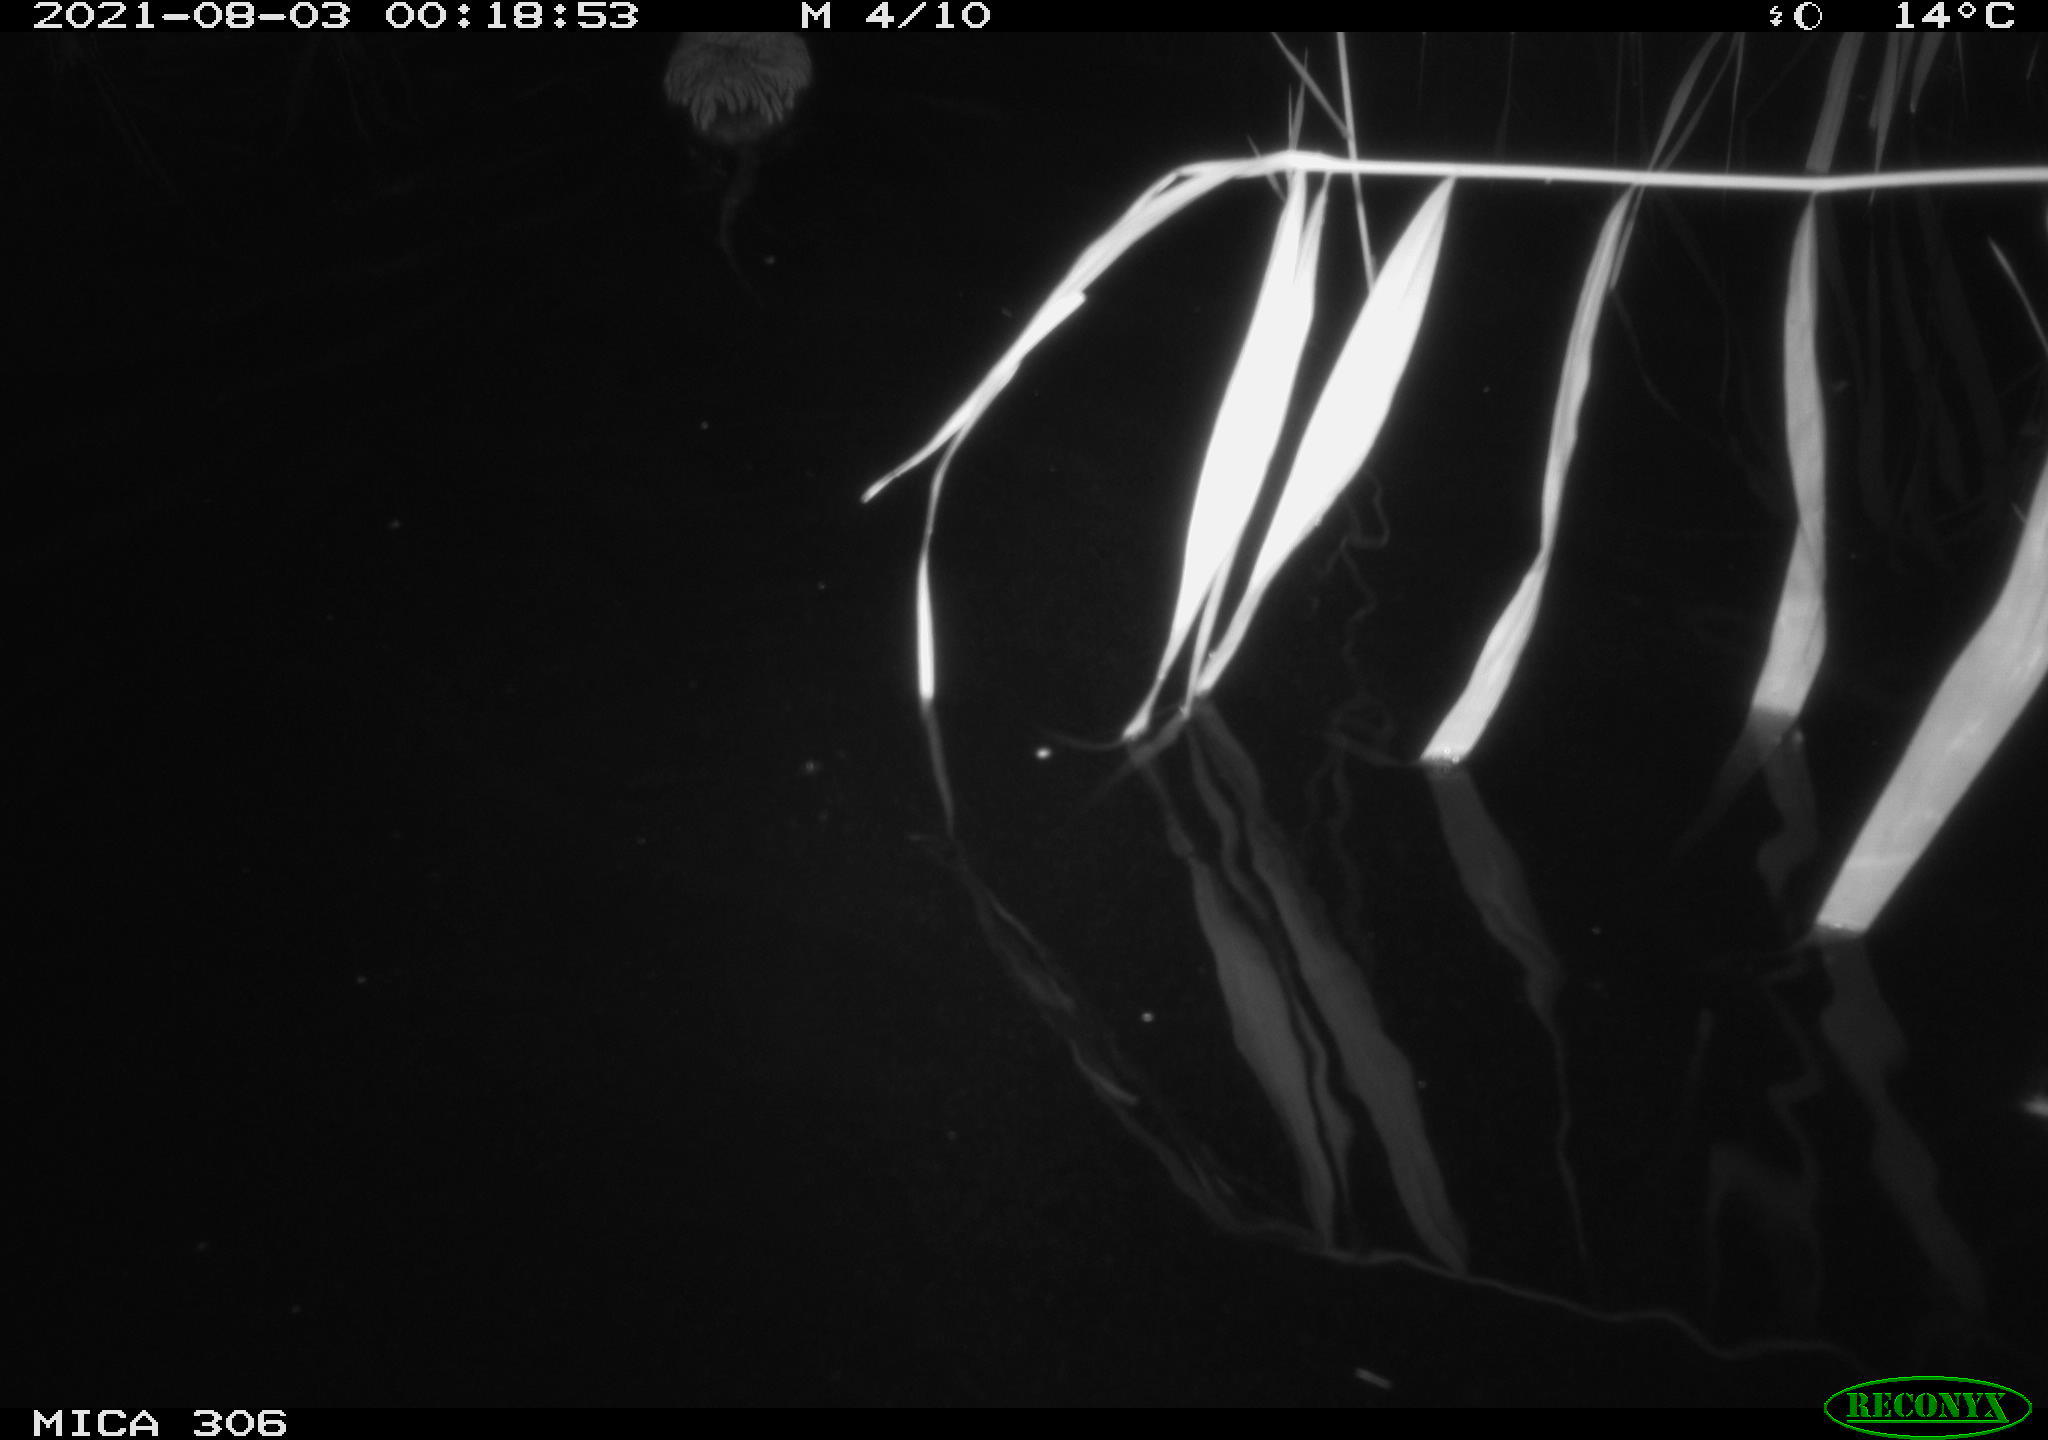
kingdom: Animalia
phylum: Chordata
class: Mammalia
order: Rodentia
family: Cricetidae
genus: Ondatra
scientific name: Ondatra zibethicus
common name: Muskrat
